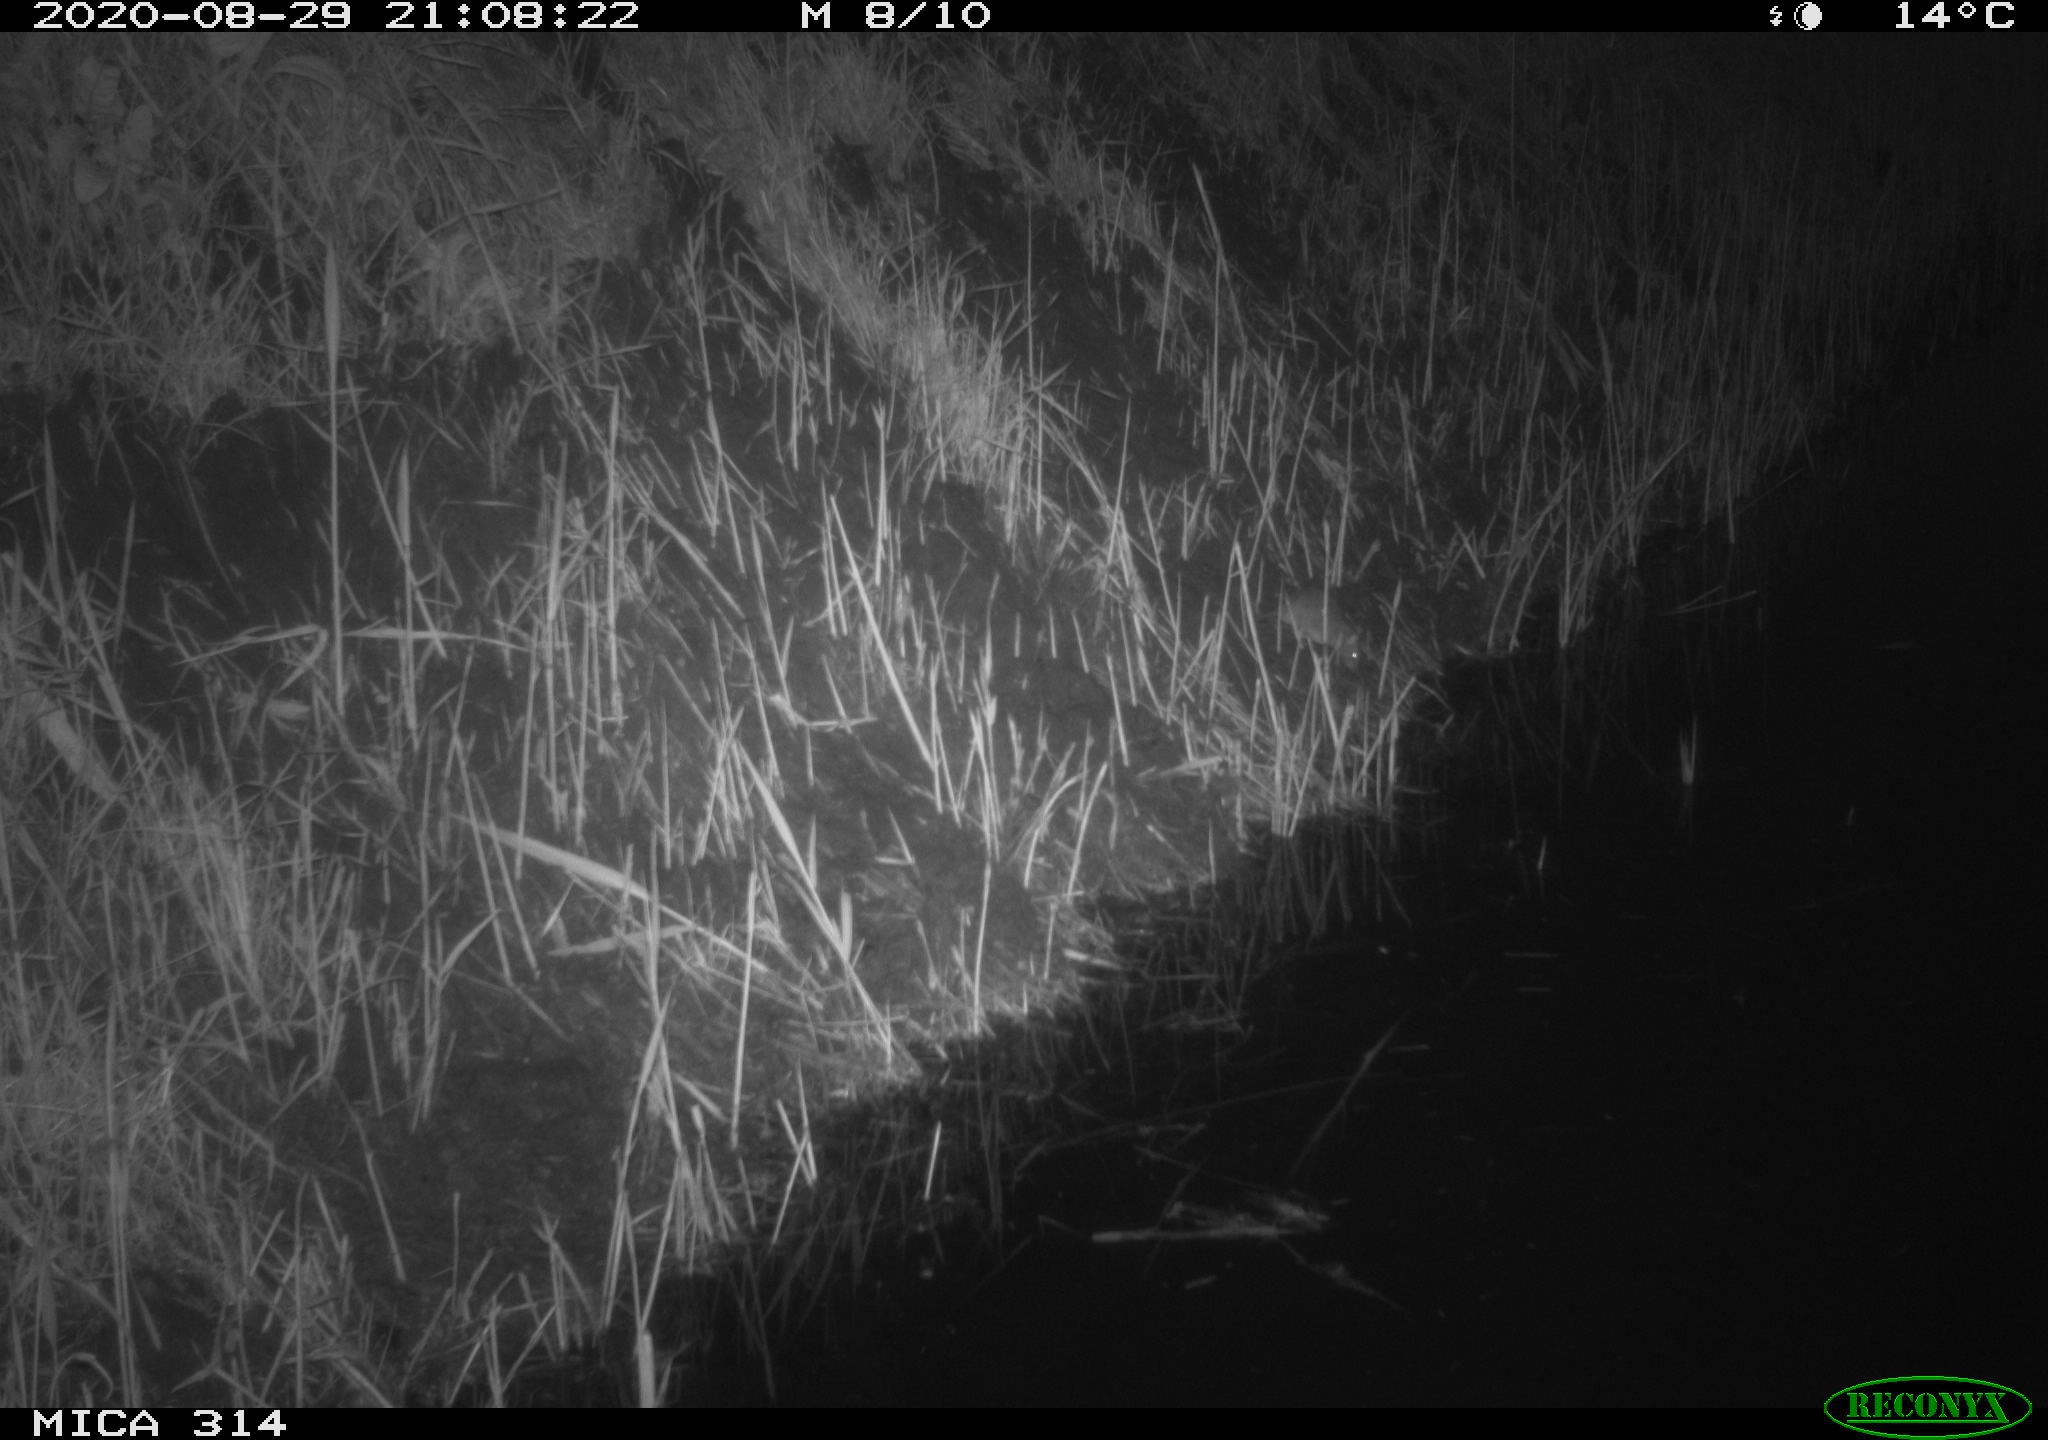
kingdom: Animalia
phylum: Chordata
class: Mammalia
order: Rodentia
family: Muridae
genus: Rattus
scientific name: Rattus norvegicus
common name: Brown rat
